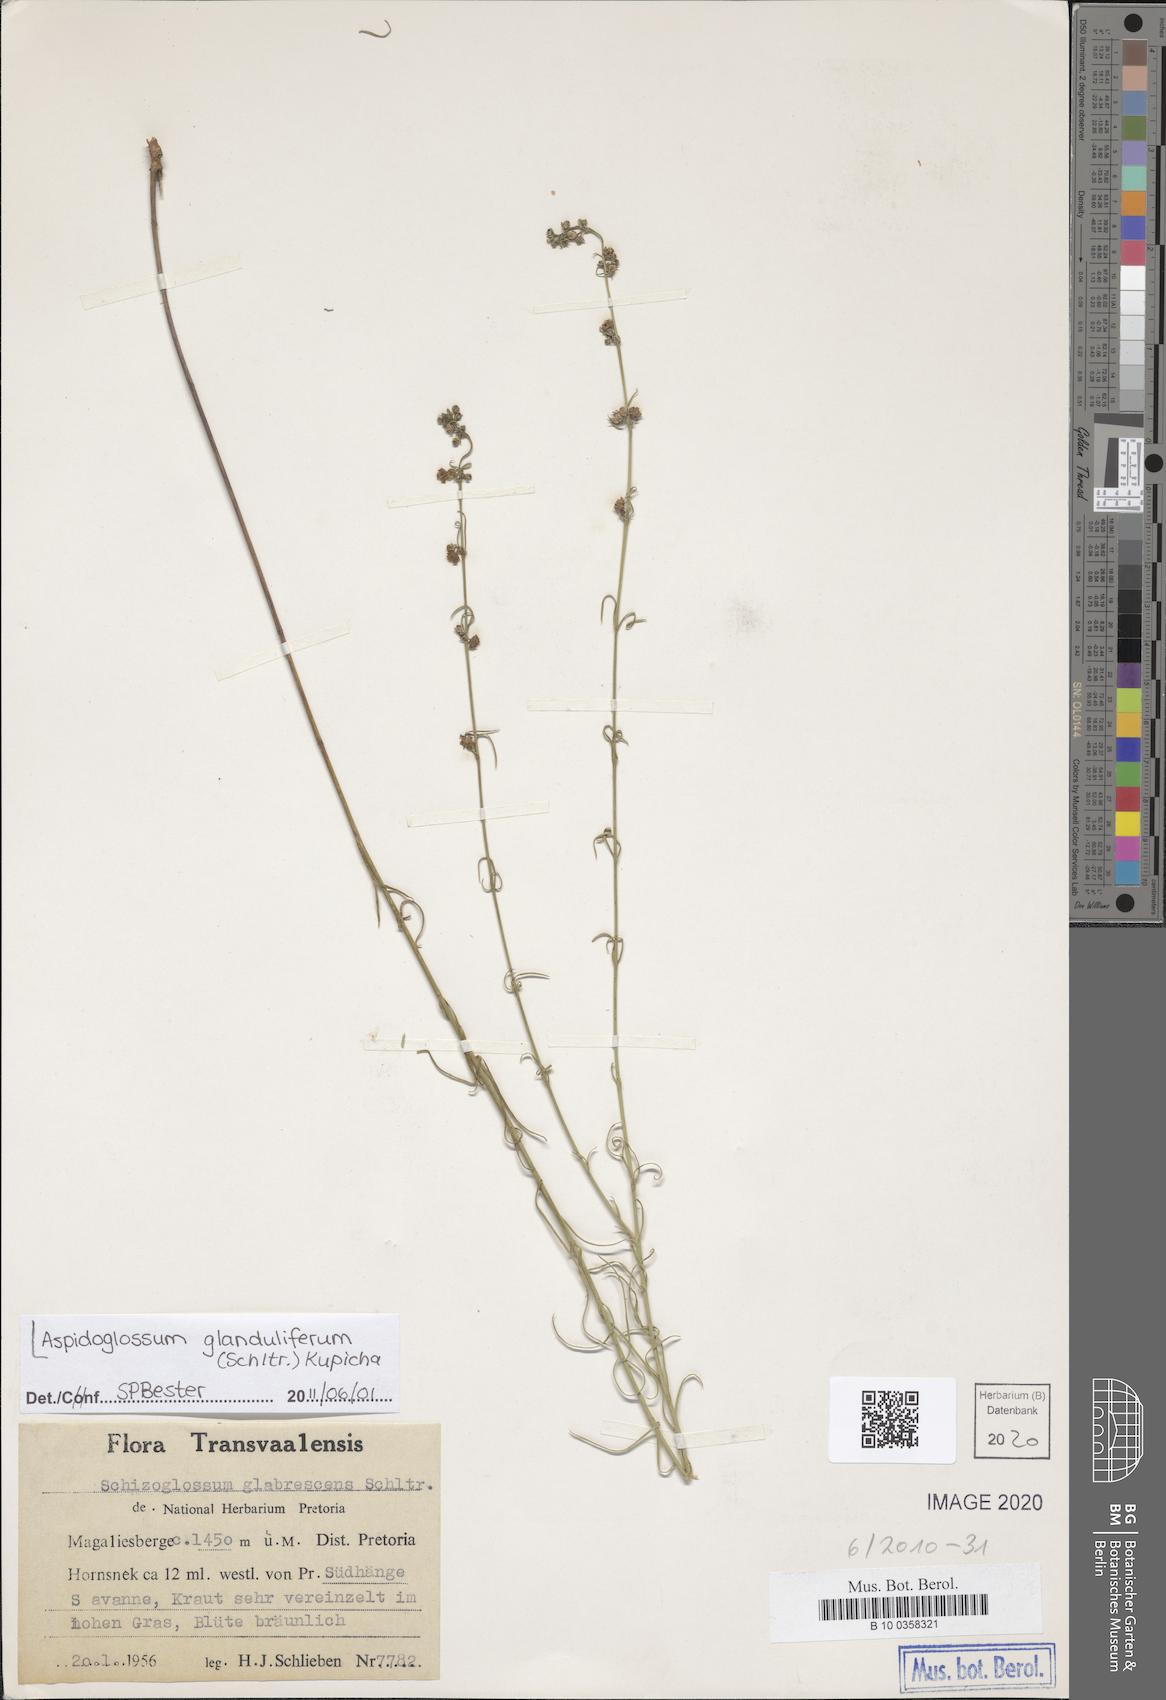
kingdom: Plantae
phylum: Tracheophyta
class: Magnoliopsida
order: Gentianales
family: Apocynaceae
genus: Aspidoglossum
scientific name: Aspidoglossum glanduliferum
